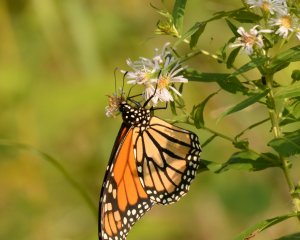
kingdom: Animalia
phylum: Arthropoda
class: Insecta
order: Lepidoptera
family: Nymphalidae
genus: Danaus
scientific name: Danaus plexippus
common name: Monarch
